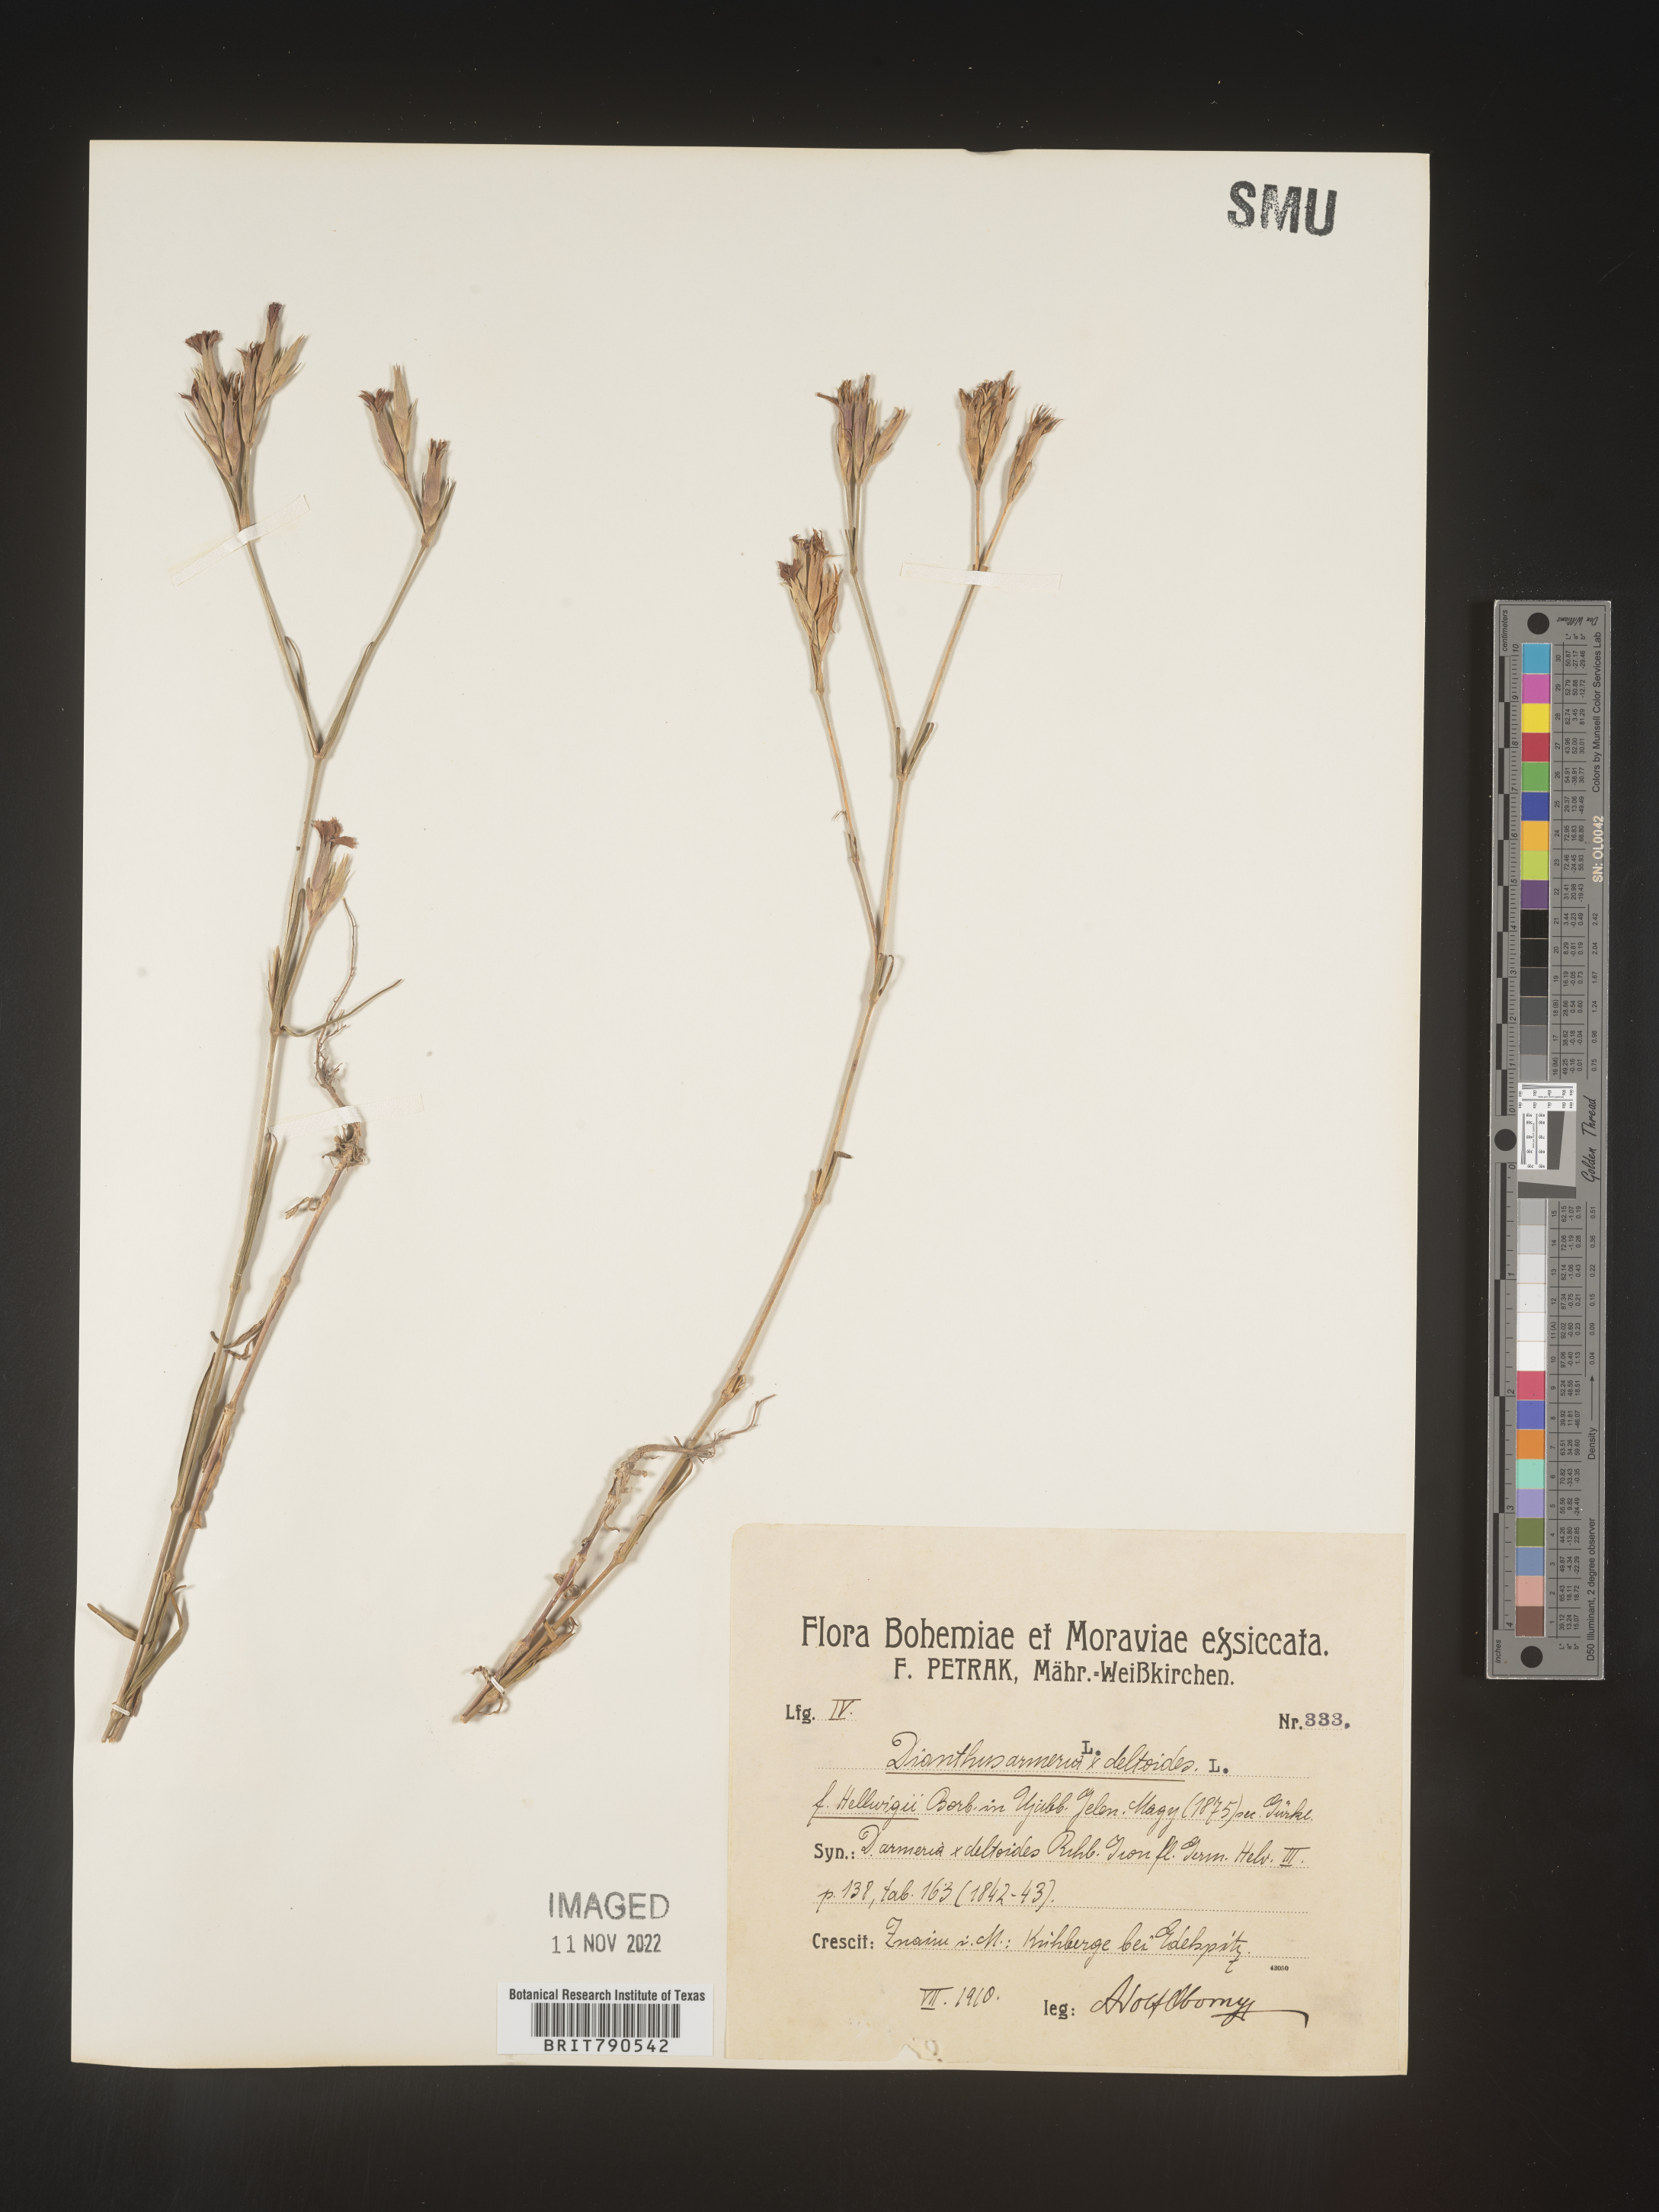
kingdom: Plantae
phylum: Tracheophyta
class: Magnoliopsida
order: Caryophyllales
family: Caryophyllaceae
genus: Dianthus
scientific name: Dianthus
